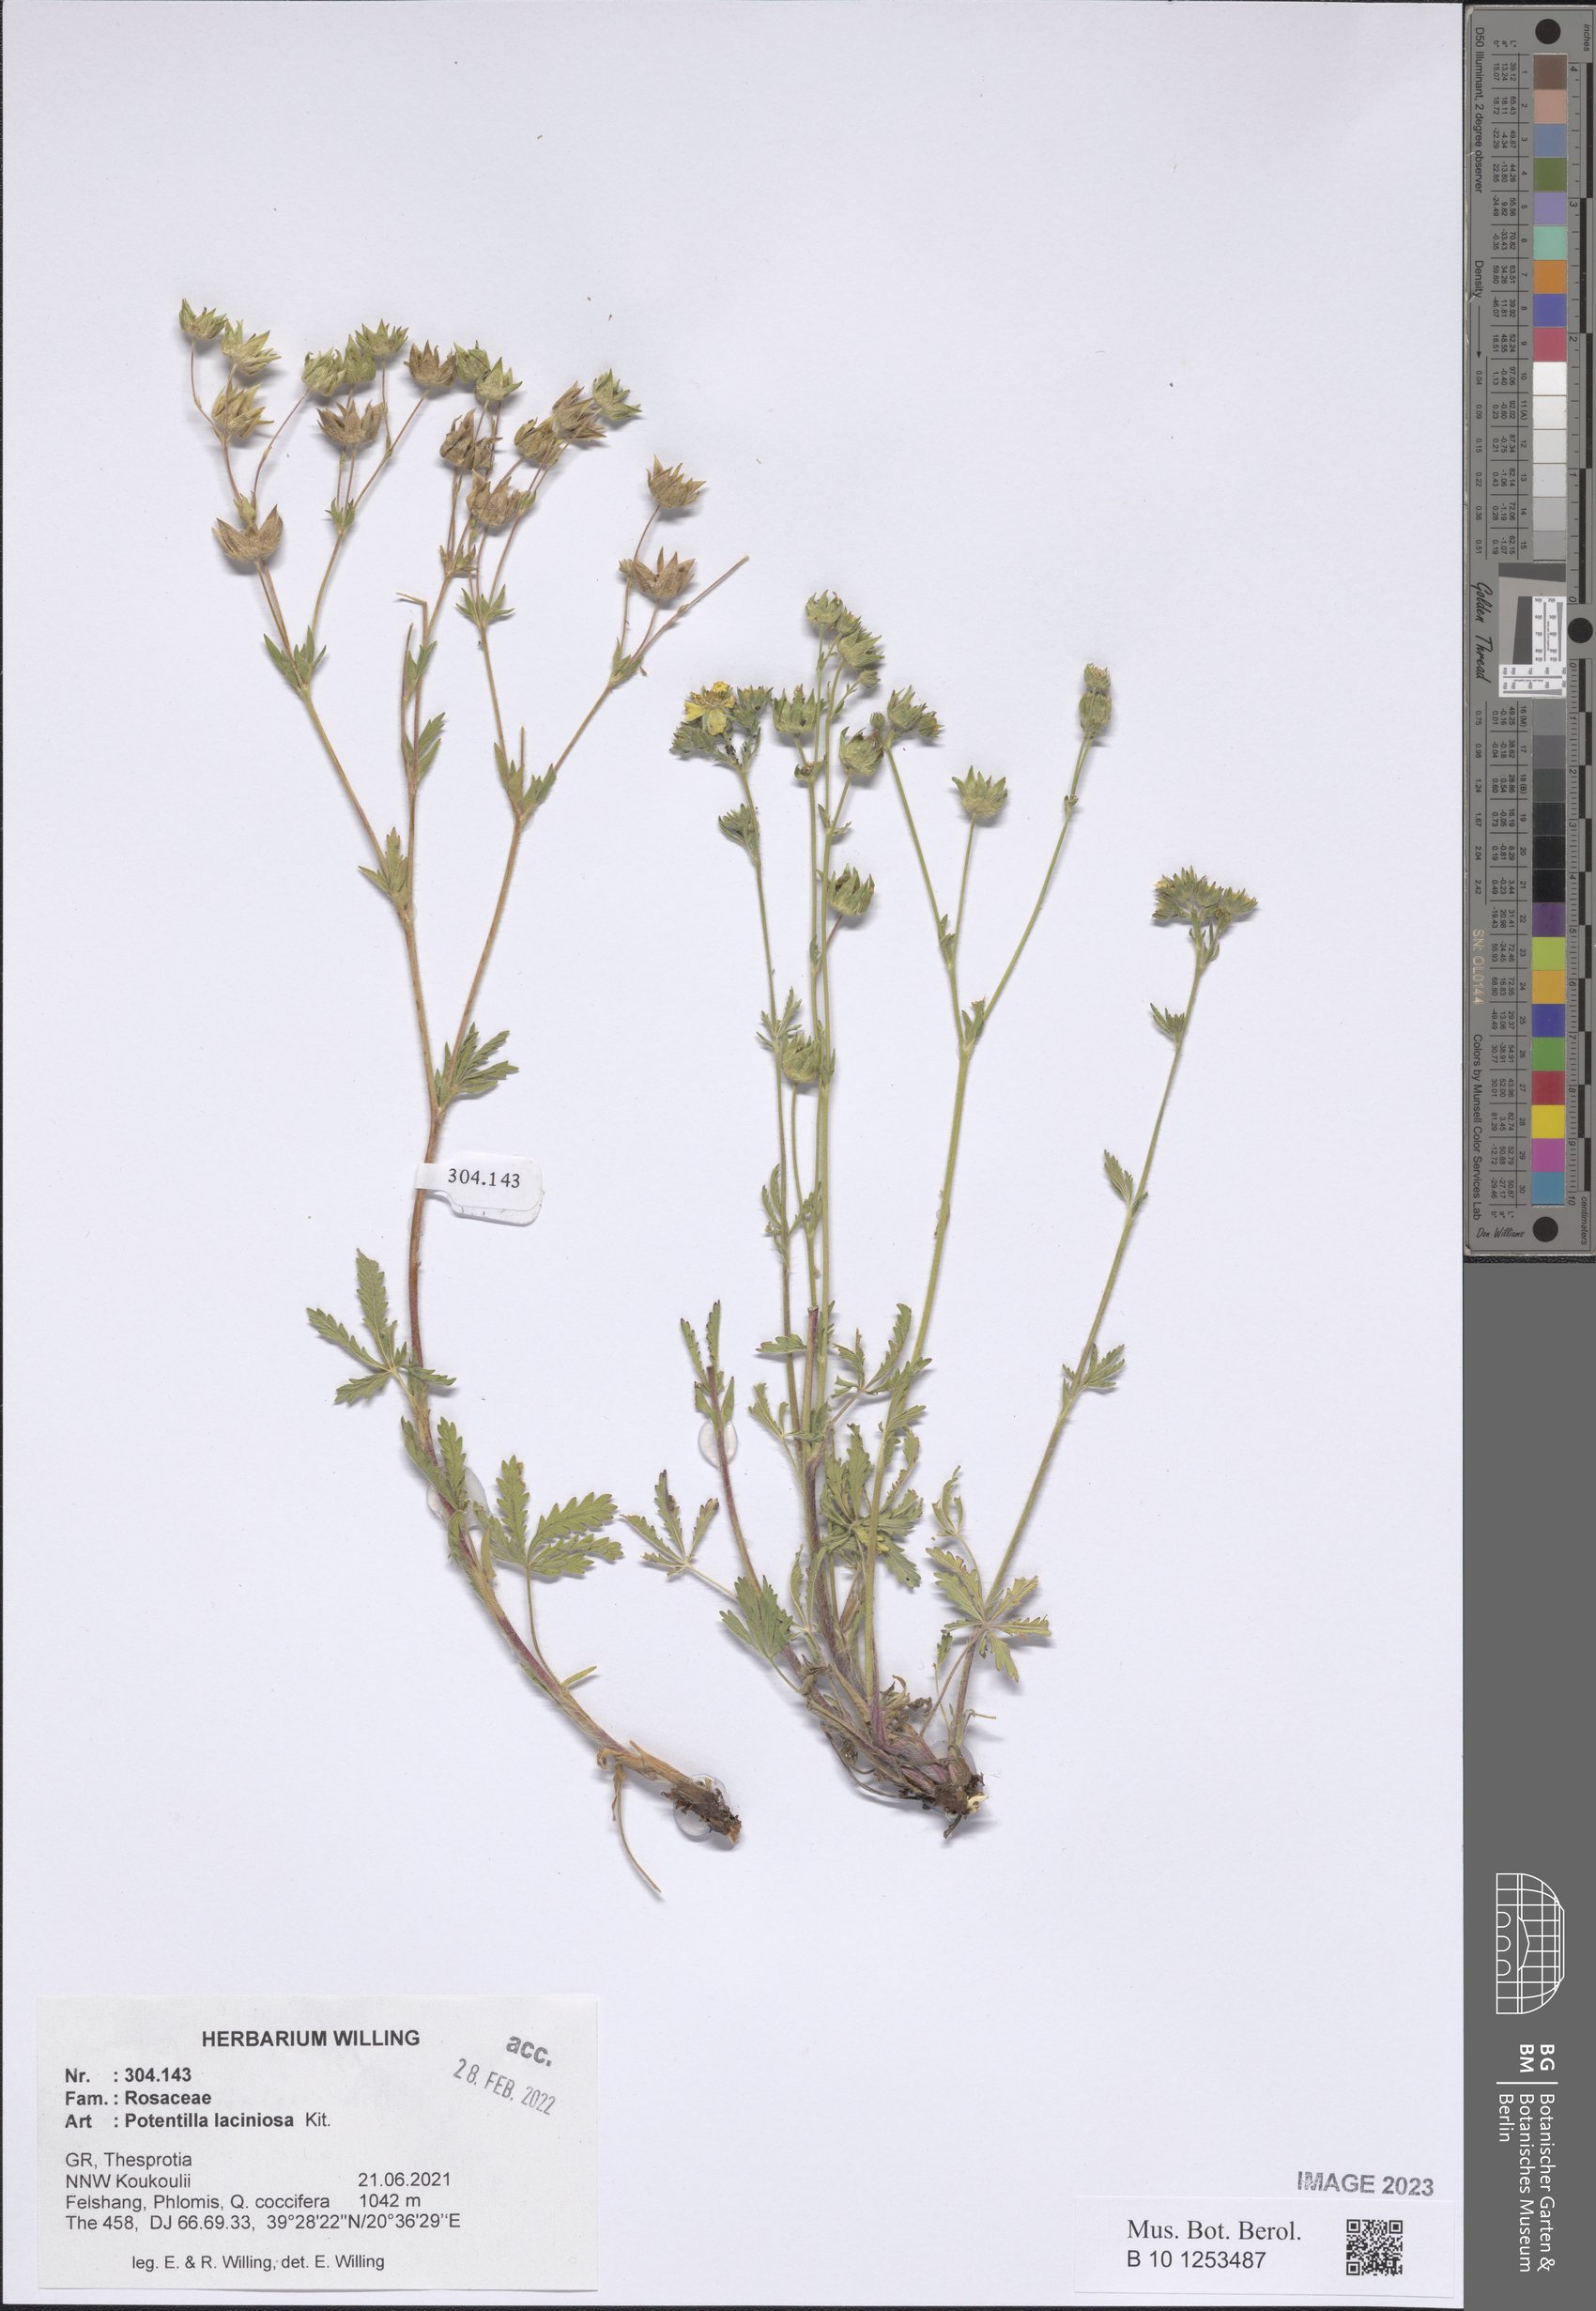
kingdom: Plantae
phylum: Tracheophyta
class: Magnoliopsida
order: Rosales
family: Rosaceae
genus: Potentilla
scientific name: Potentilla recta
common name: Sulphur cinquefoil
